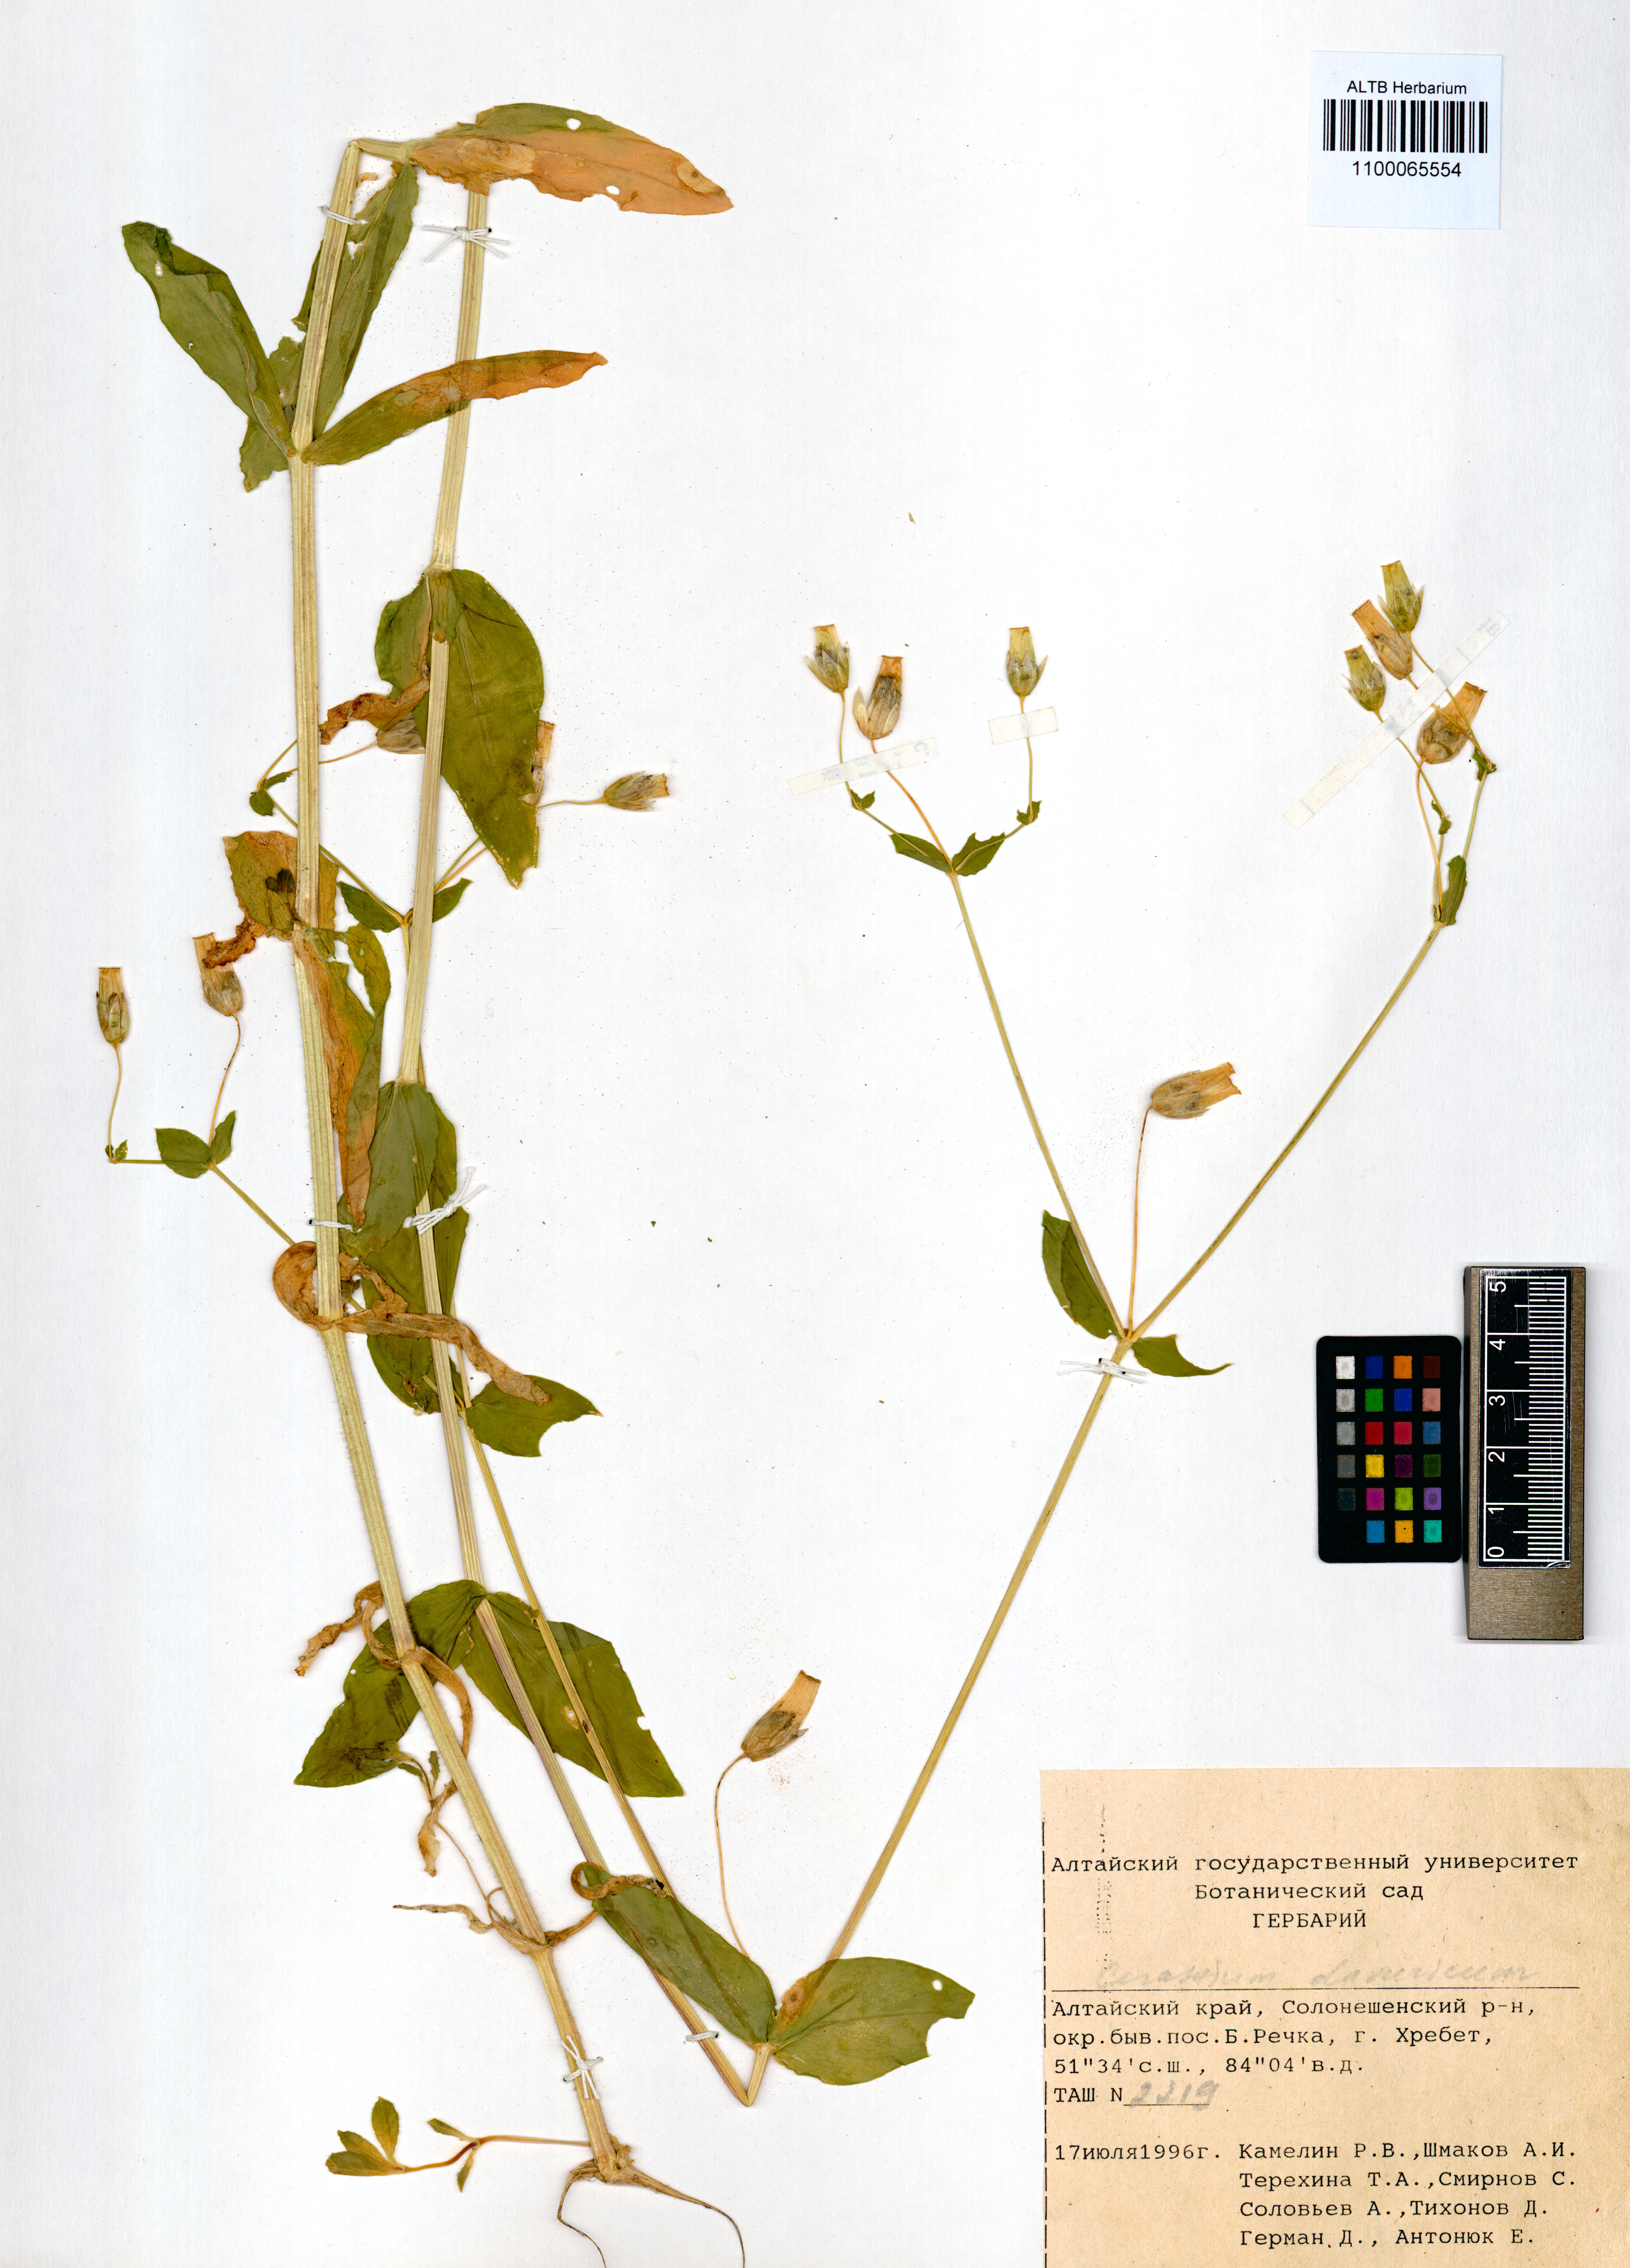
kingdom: Plantae
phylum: Tracheophyta
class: Magnoliopsida
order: Caryophyllales
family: Caryophyllaceae
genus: Cerastium
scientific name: Cerastium davuricum
